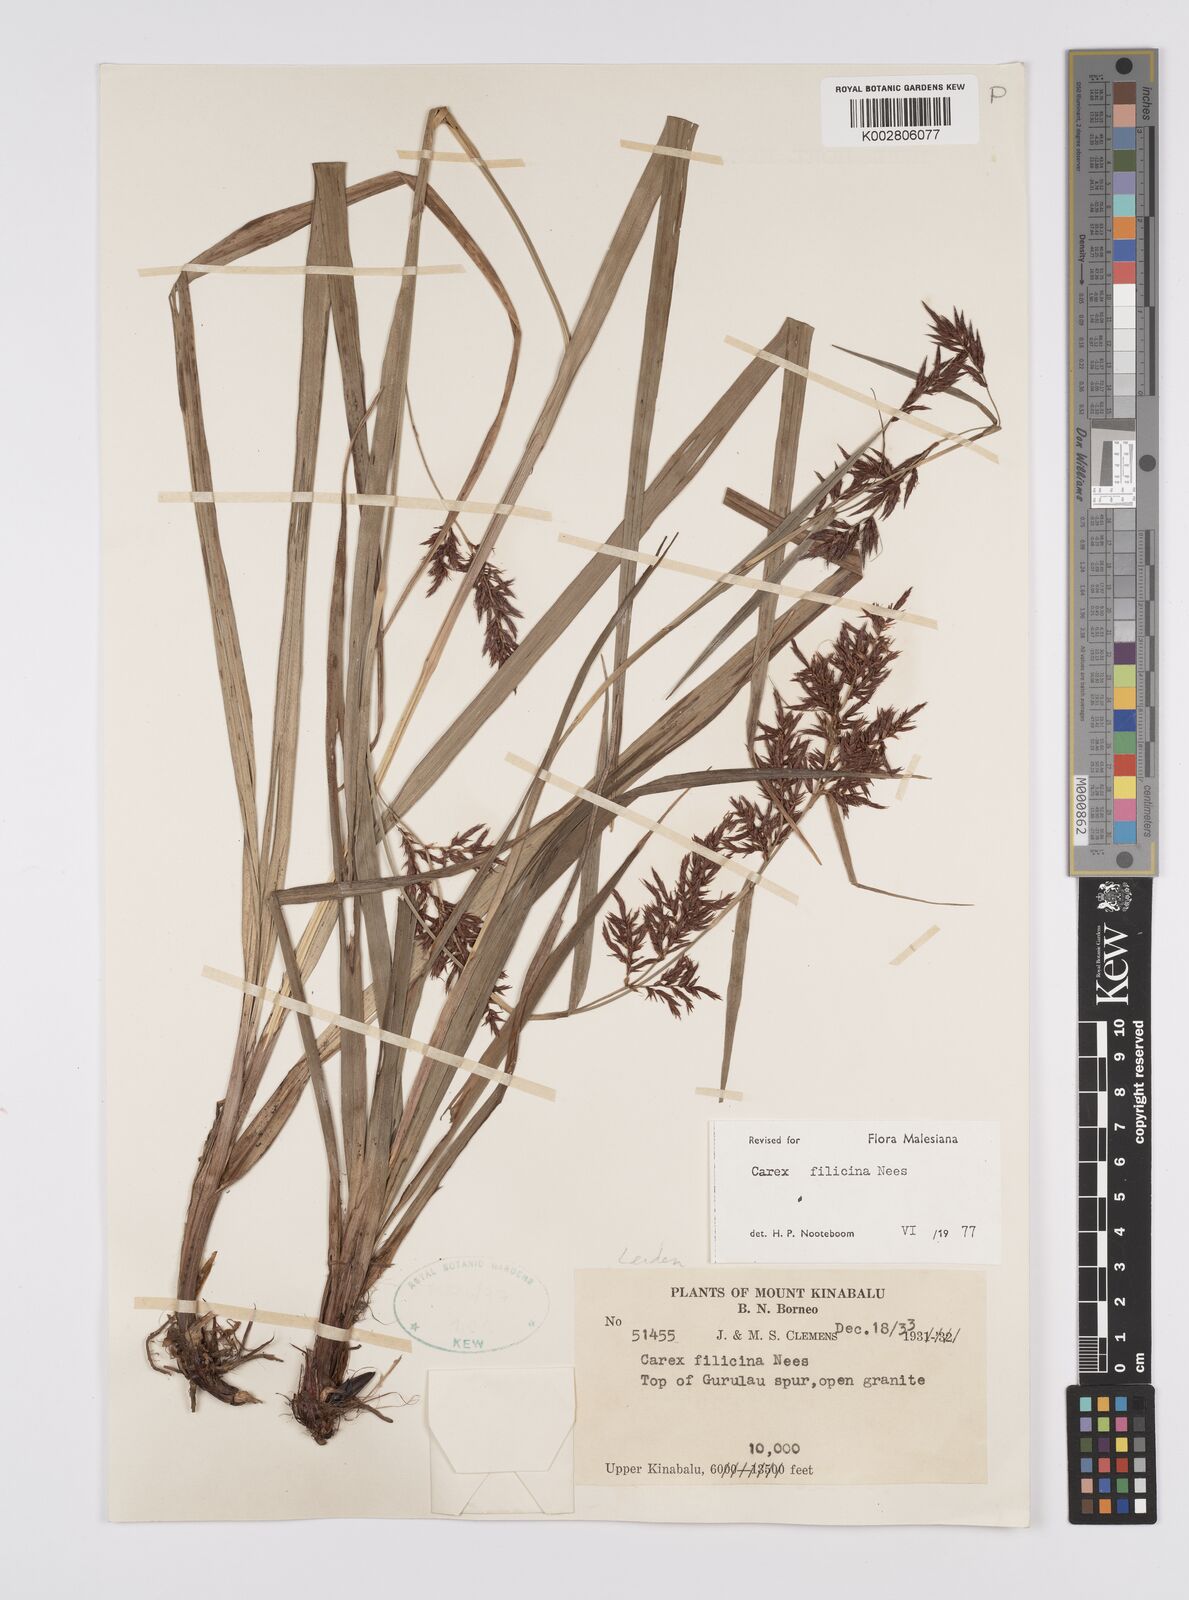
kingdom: Plantae
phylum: Tracheophyta
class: Liliopsida
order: Poales
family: Cyperaceae
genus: Carex
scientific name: Carex filicina
